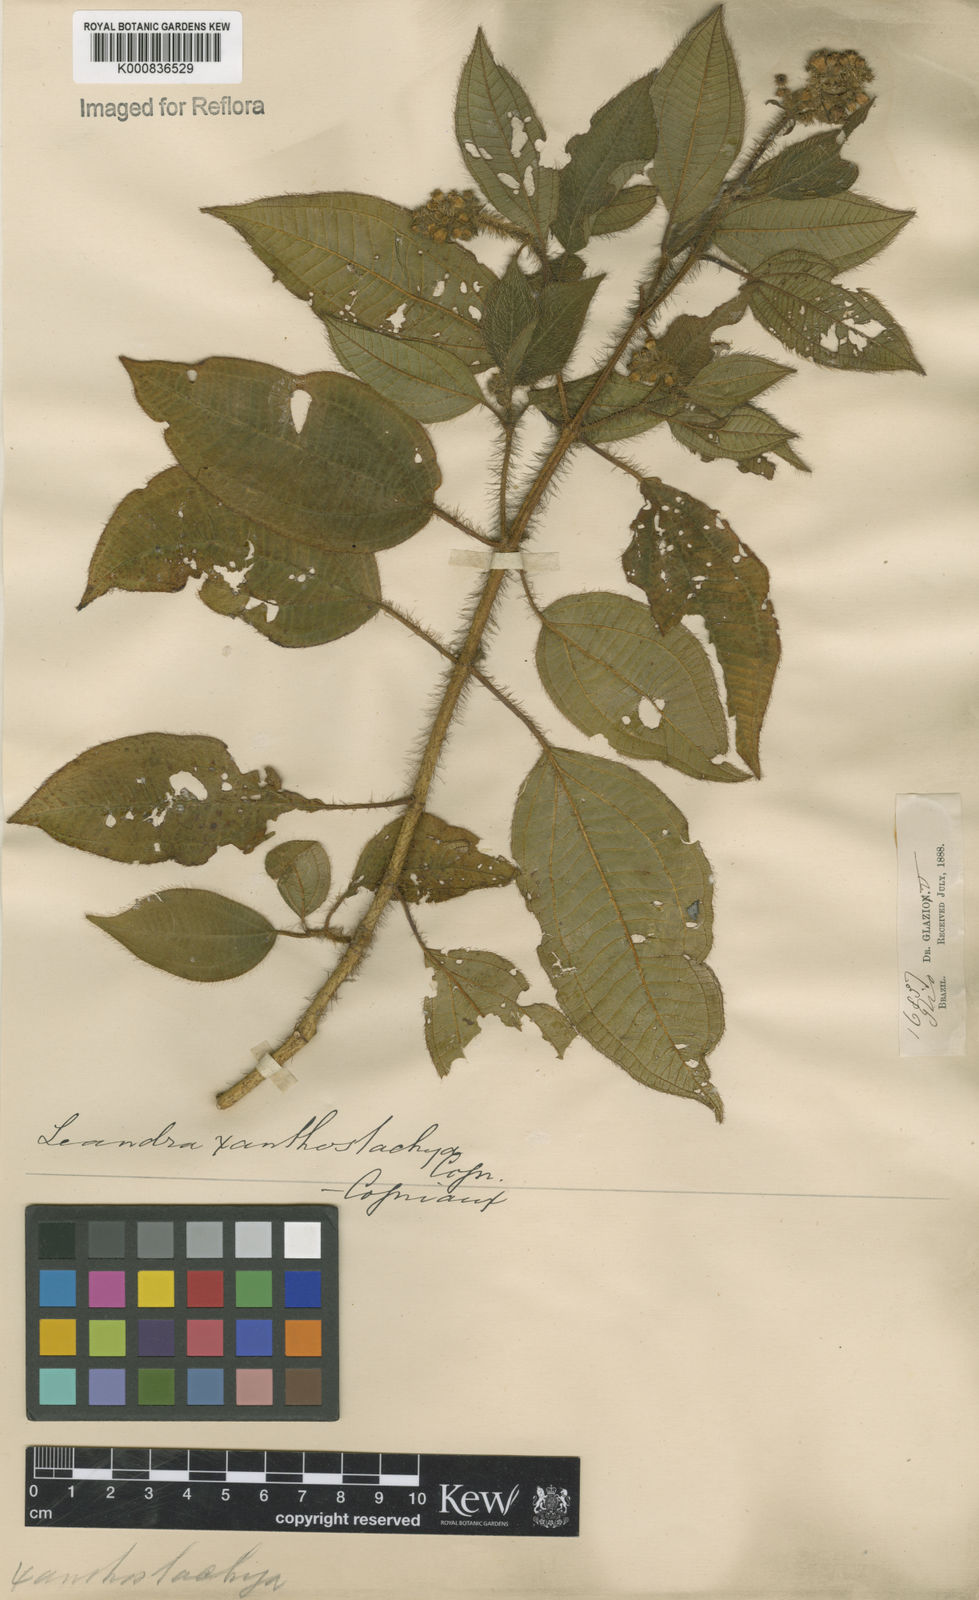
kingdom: Plantae
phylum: Tracheophyta
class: Magnoliopsida
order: Myrtales
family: Melastomataceae
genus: Miconia
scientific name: Miconia xanthostachya
